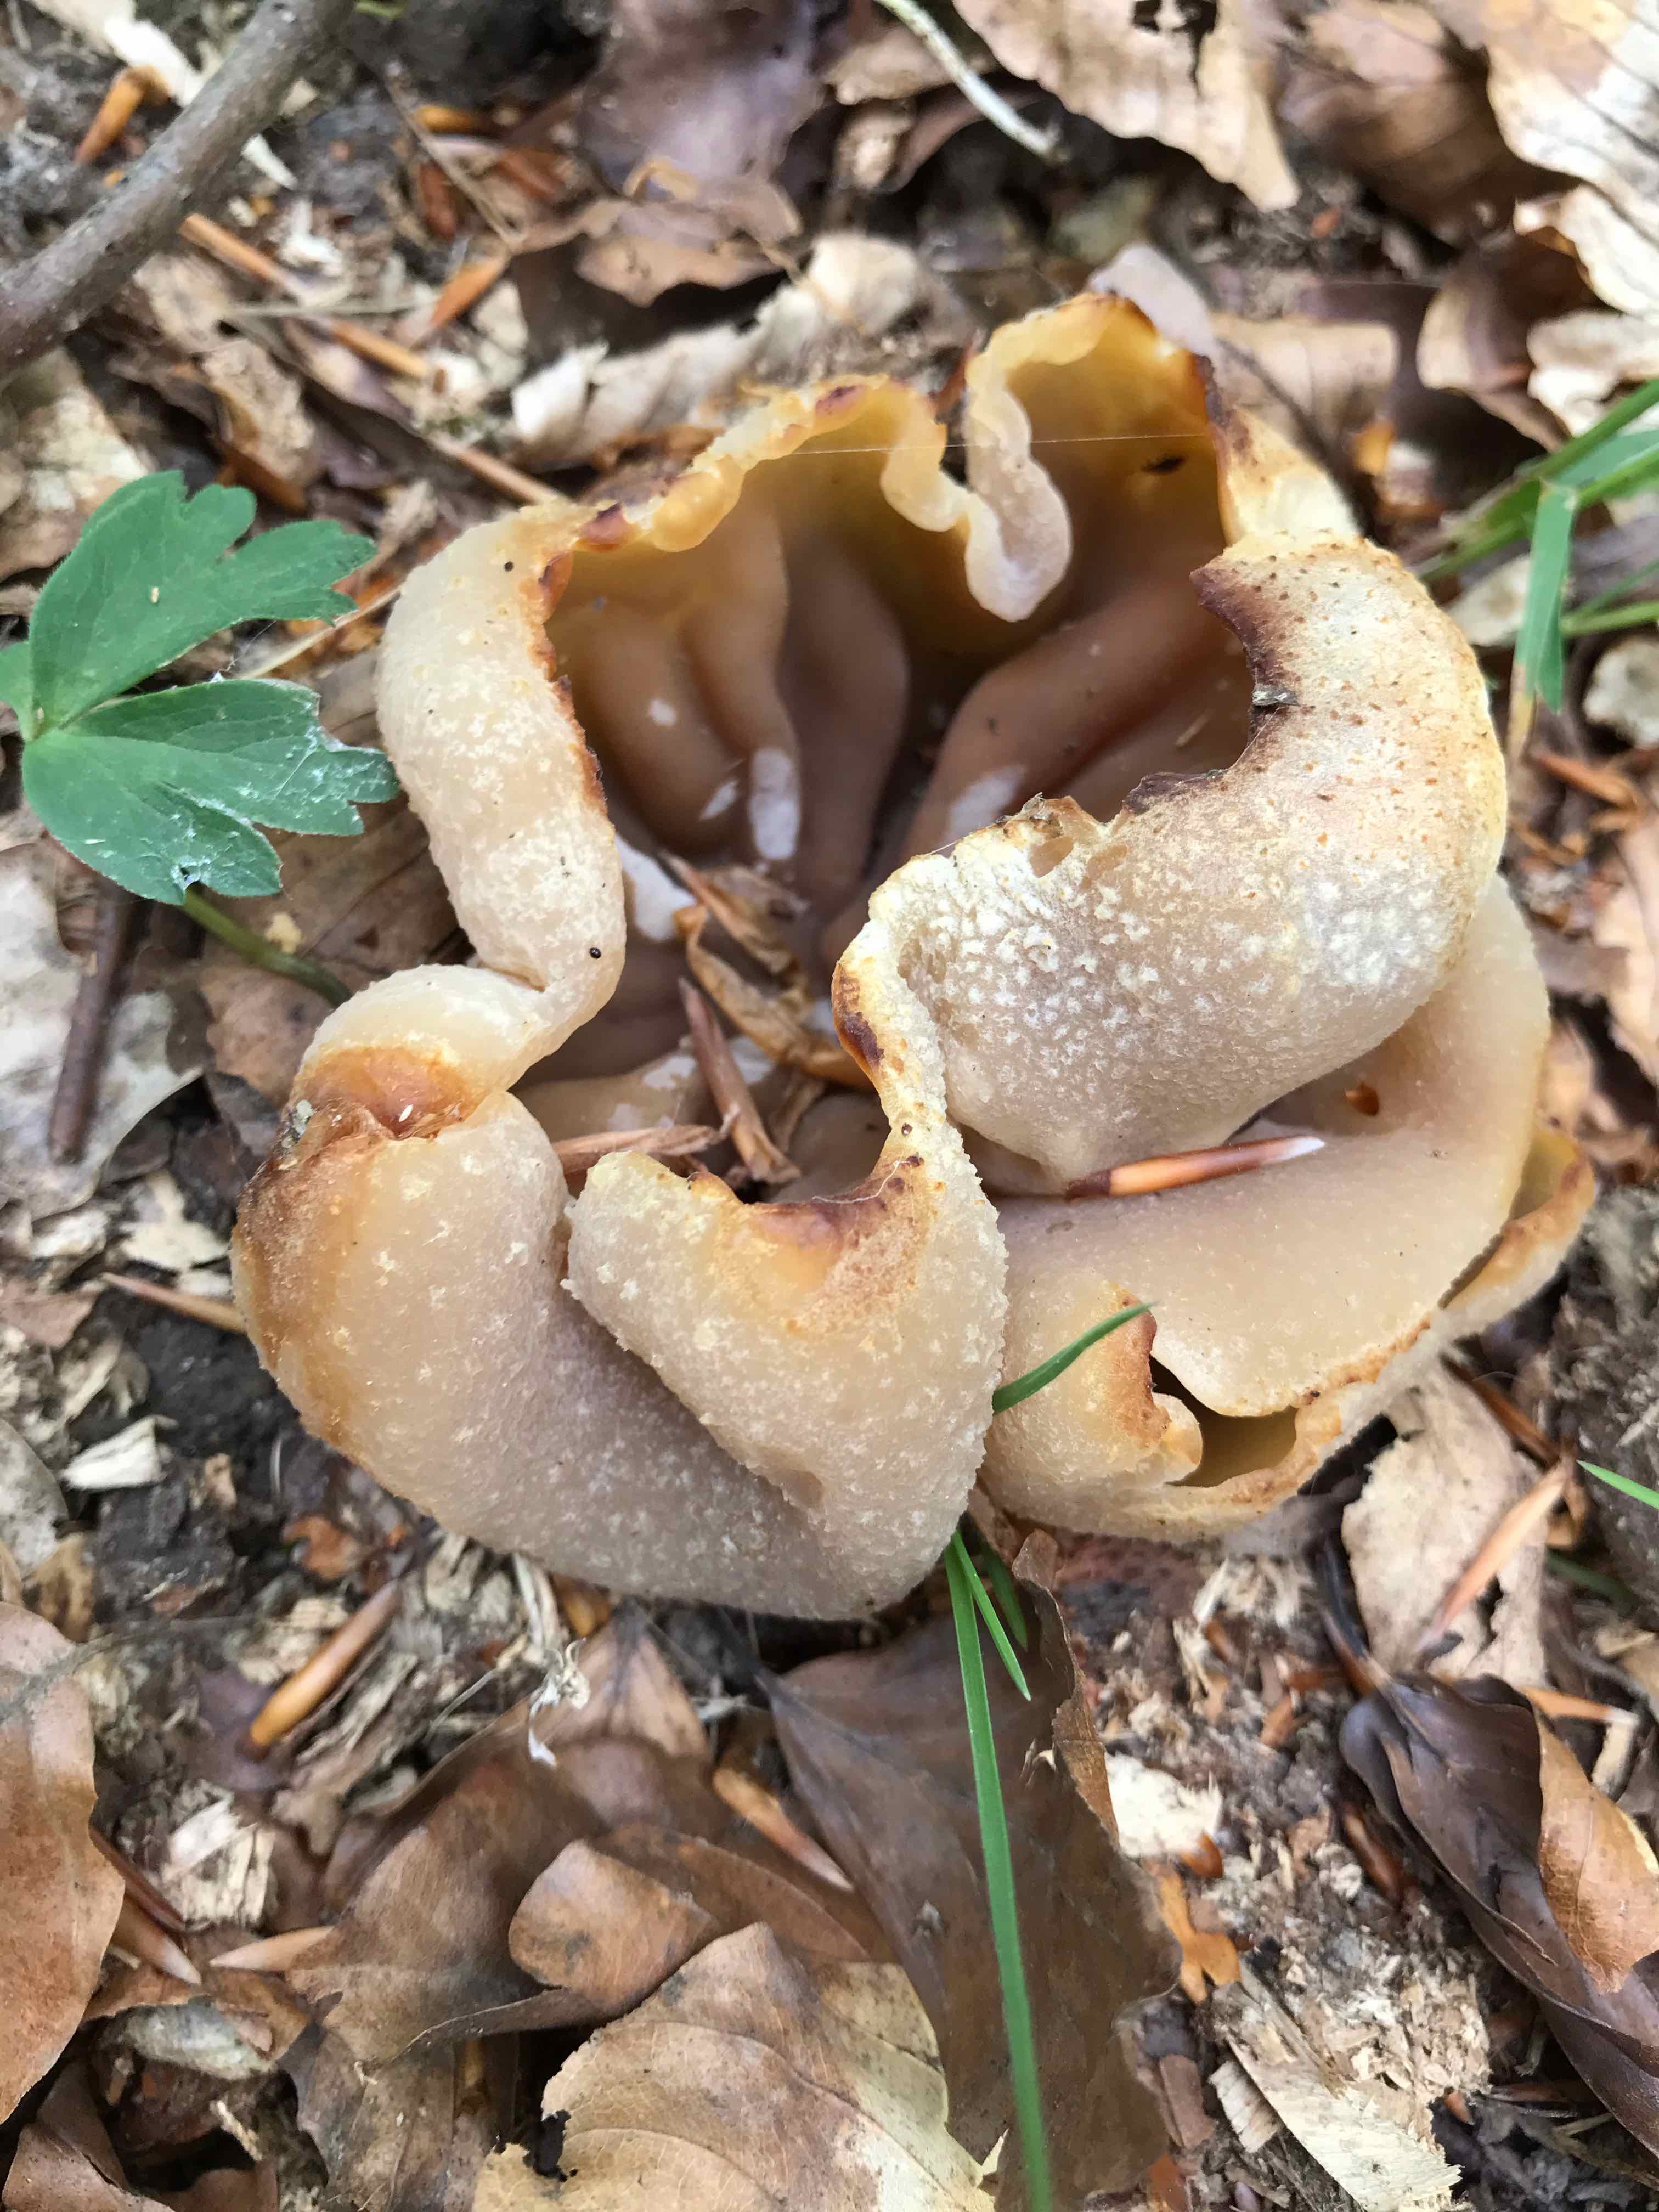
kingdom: Fungi
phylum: Ascomycota
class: Pezizomycetes
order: Pezizales
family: Pezizaceae
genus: Peziza
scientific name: Peziza
